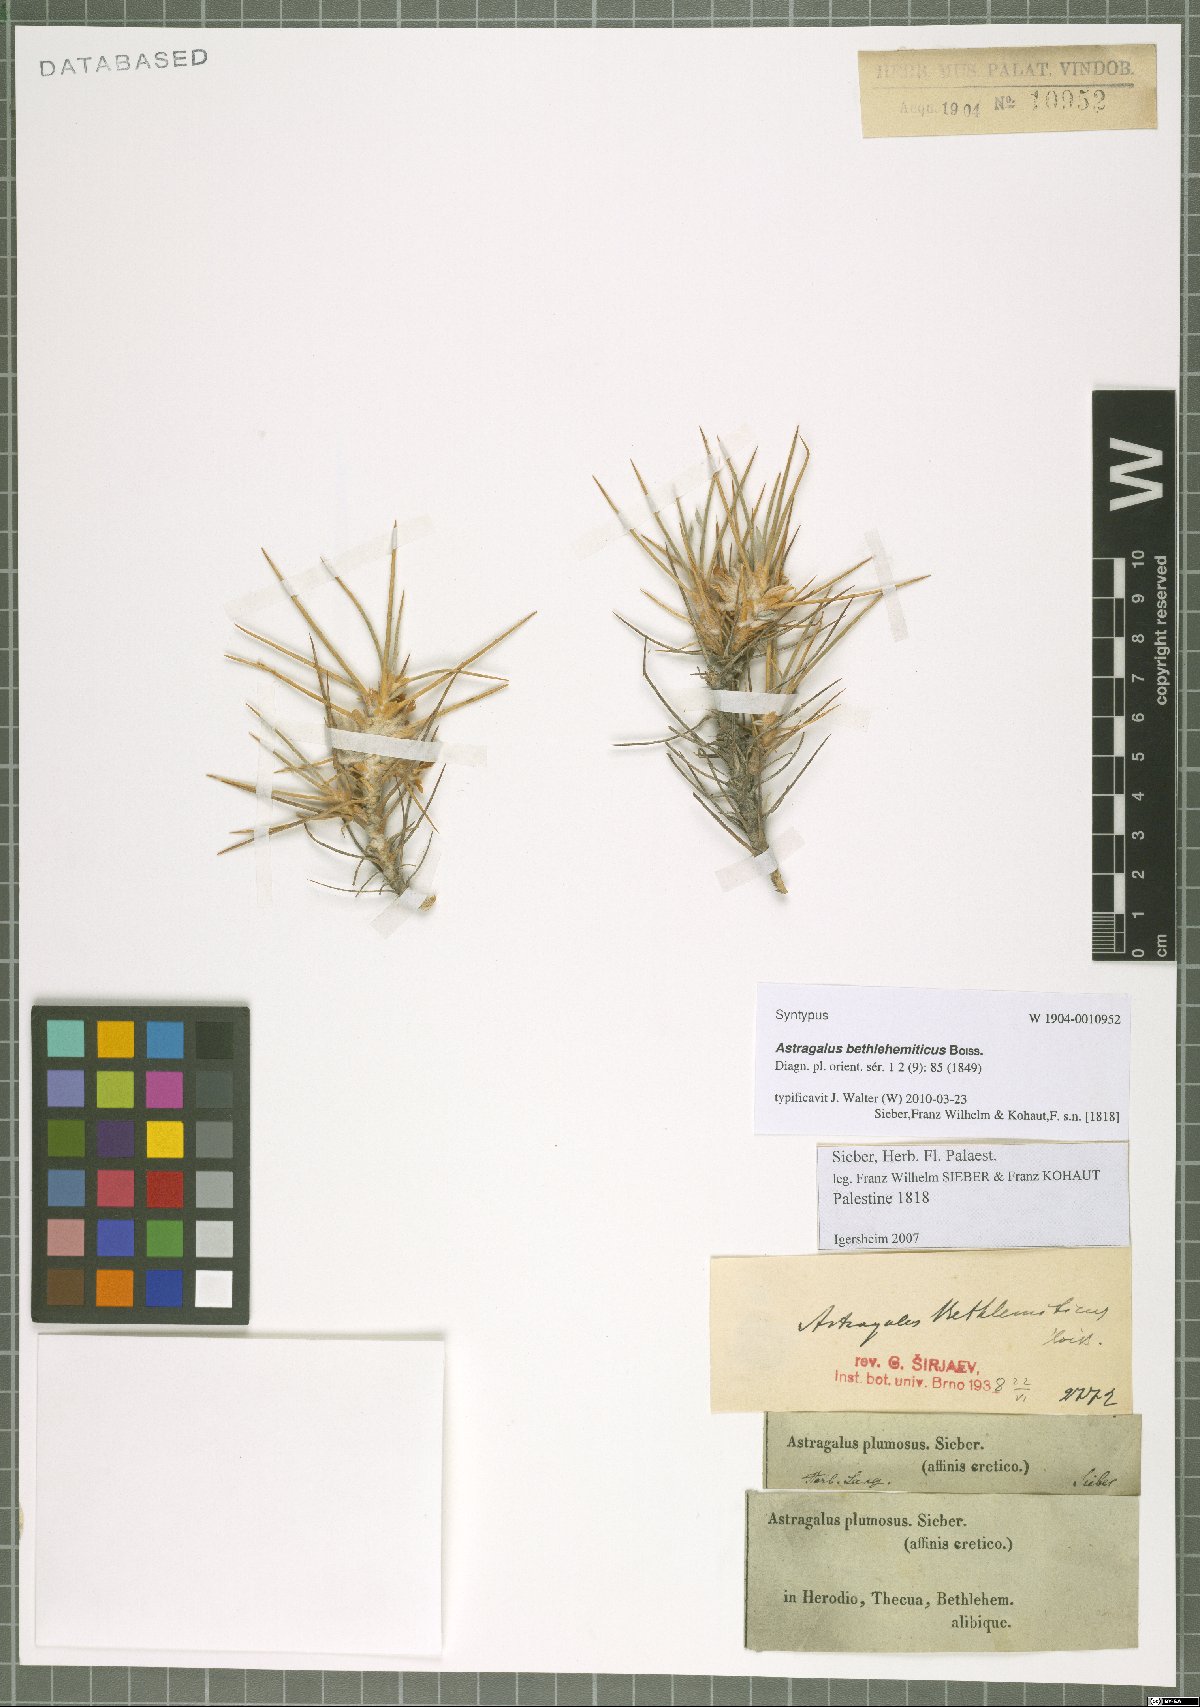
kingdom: Plantae
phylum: Tracheophyta
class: Magnoliopsida
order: Fabales
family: Fabaceae
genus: Astragalus
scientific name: Astragalus bethlehemiticus
